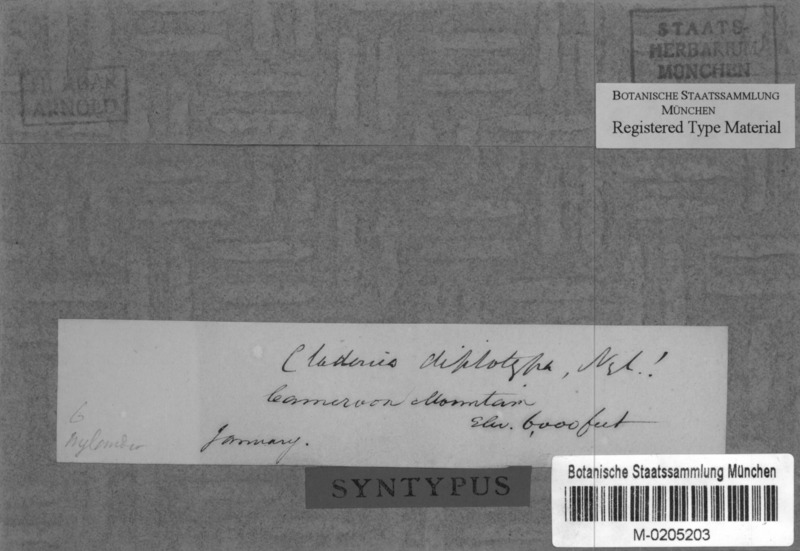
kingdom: Fungi
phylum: Ascomycota
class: Lecanoromycetes
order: Lecanorales
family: Cladoniaceae
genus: Cladonia
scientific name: Cladonia valida
